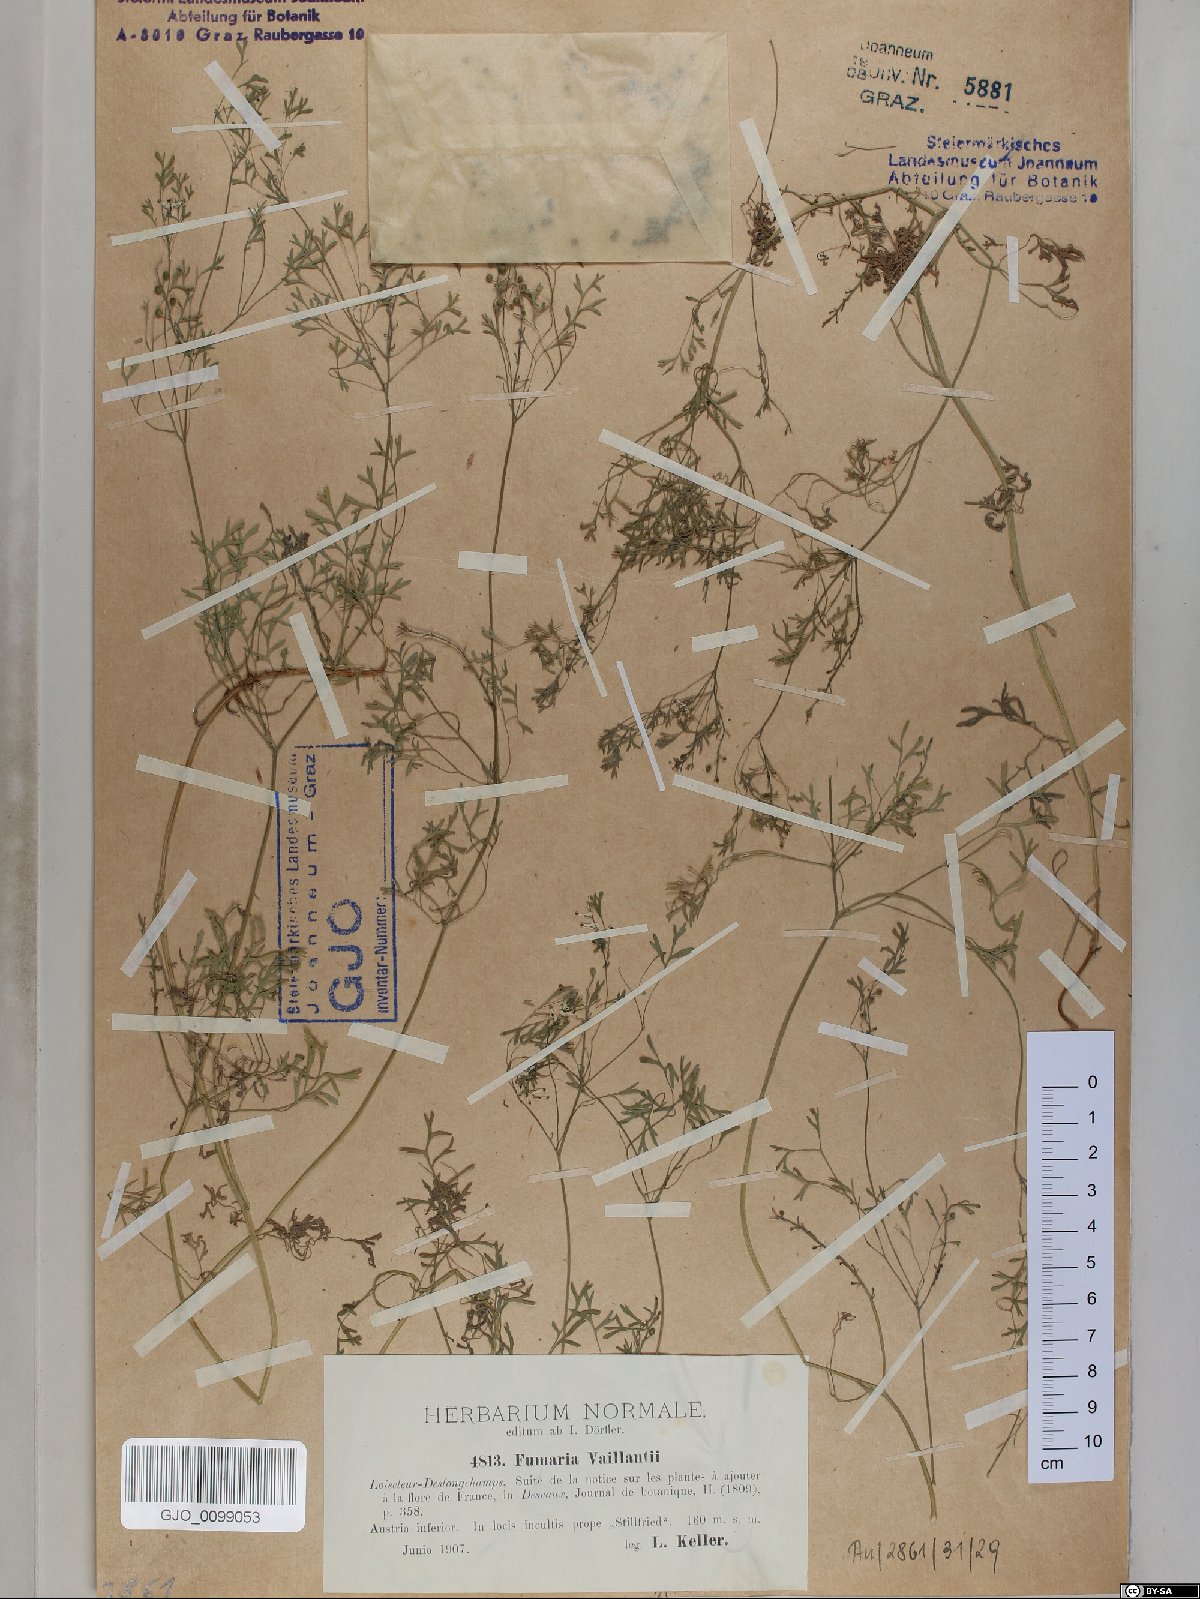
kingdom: Plantae
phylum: Tracheophyta
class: Magnoliopsida
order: Ranunculales
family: Papaveraceae
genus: Fumaria
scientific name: Fumaria vaillantii
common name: Few-flowered fumitory
